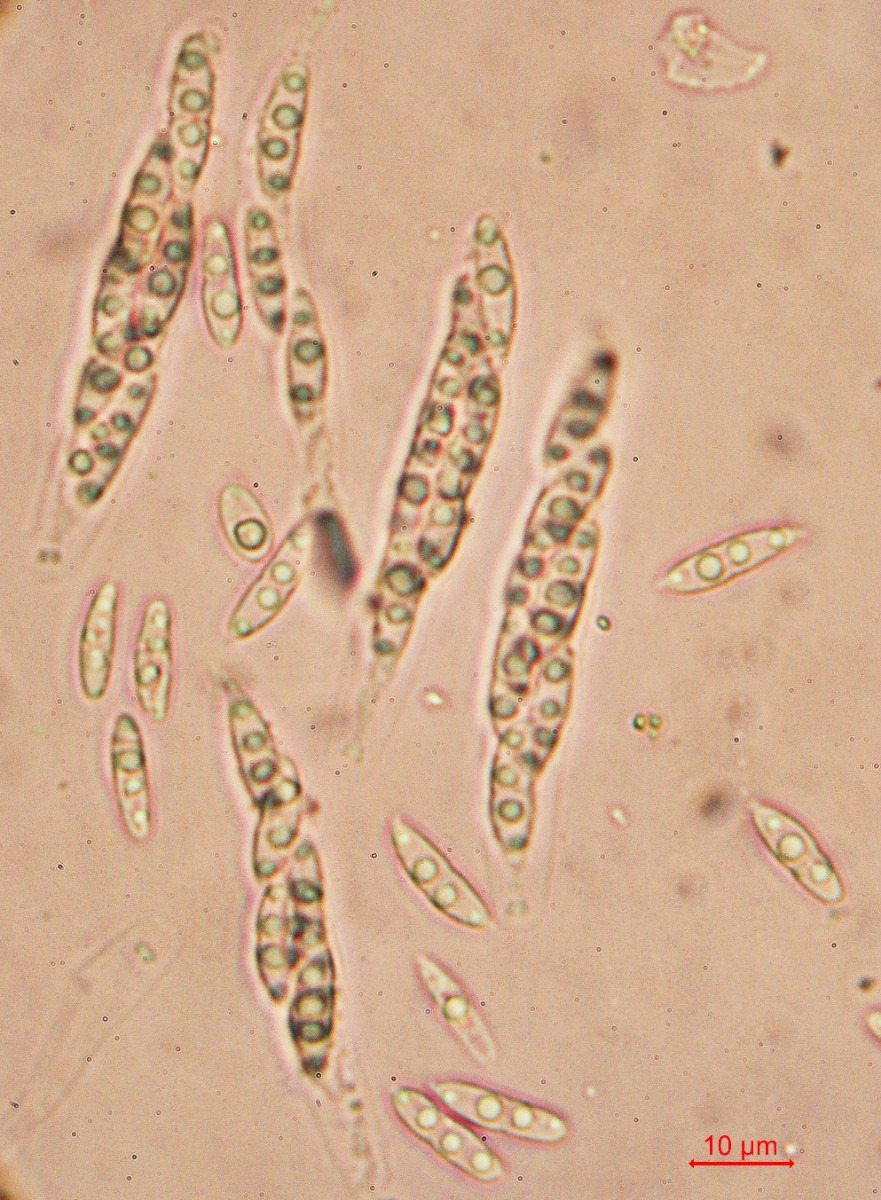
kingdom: Fungi
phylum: Ascomycota
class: Sordariomycetes
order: Diaporthales
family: Diaporthaceae
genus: Diaporthe
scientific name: Diaporthe arctii
